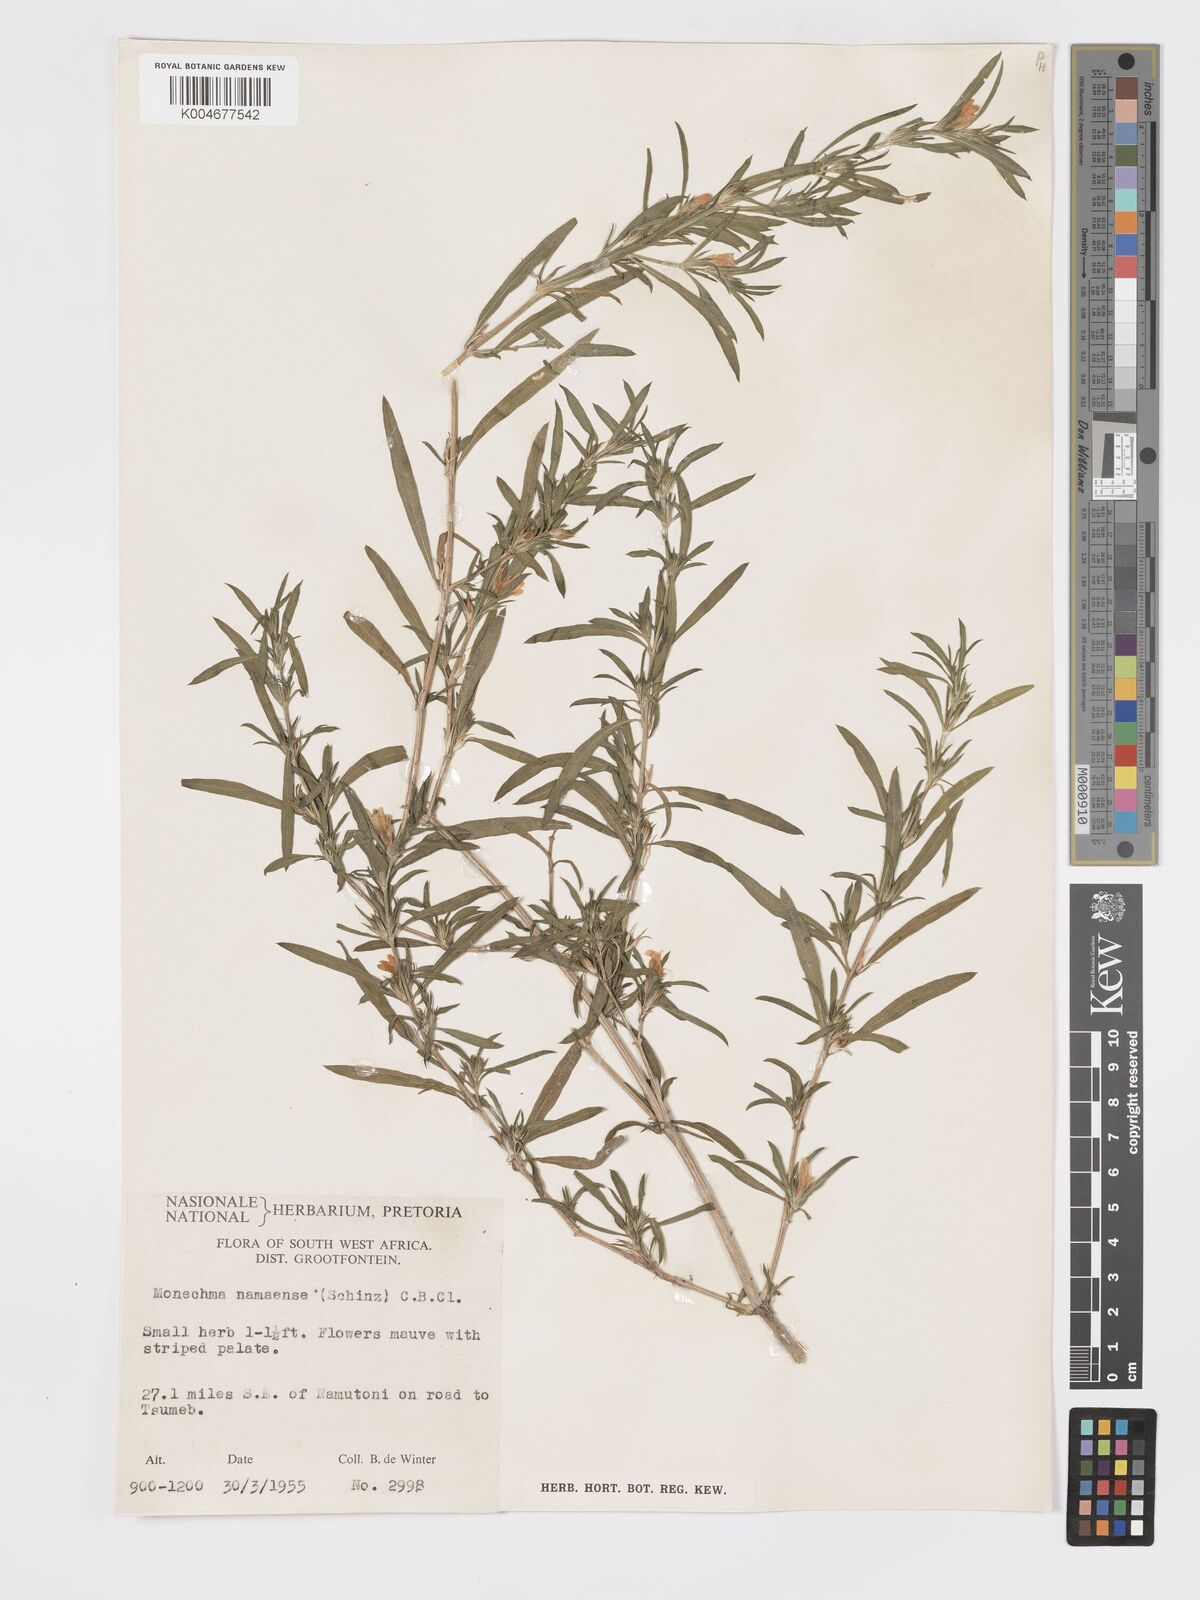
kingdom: Plantae
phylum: Tracheophyta
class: Magnoliopsida
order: Lamiales
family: Acanthaceae
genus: Pogonospermum
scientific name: Pogonospermum
